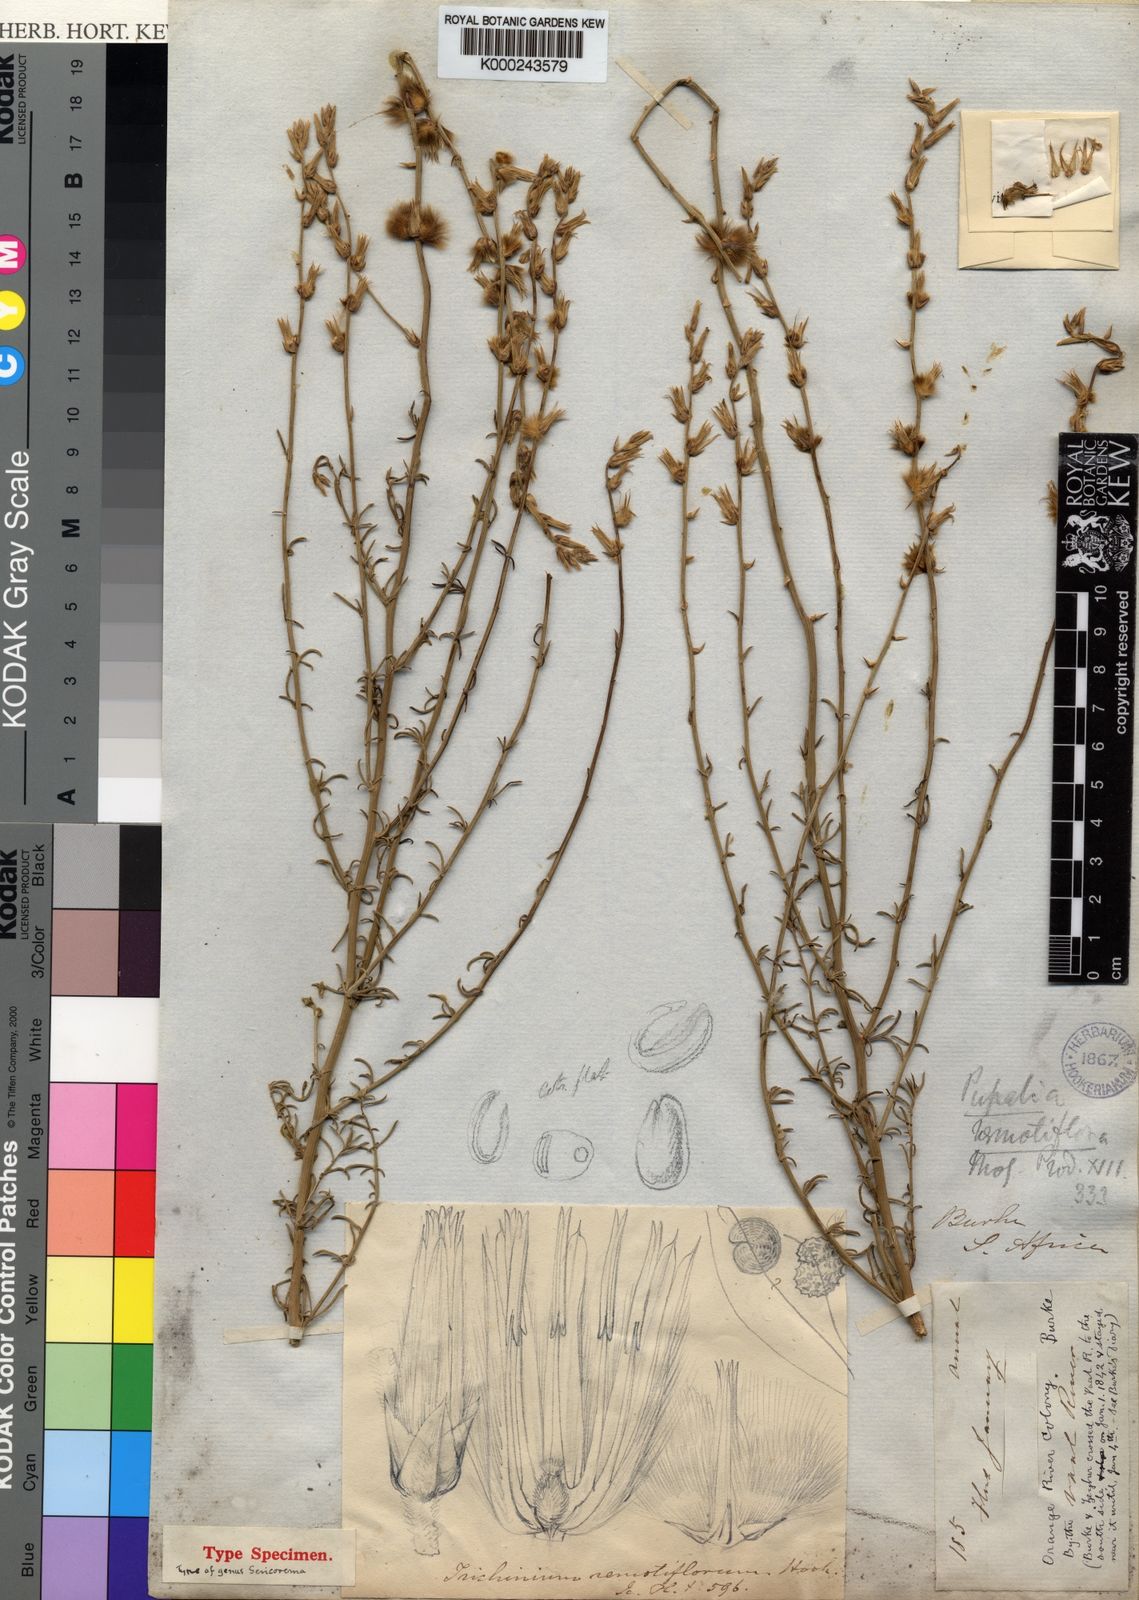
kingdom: Plantae
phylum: Tracheophyta
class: Magnoliopsida
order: Caryophyllales
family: Amaranthaceae
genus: Sericorema
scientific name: Sericorema remotiflora
